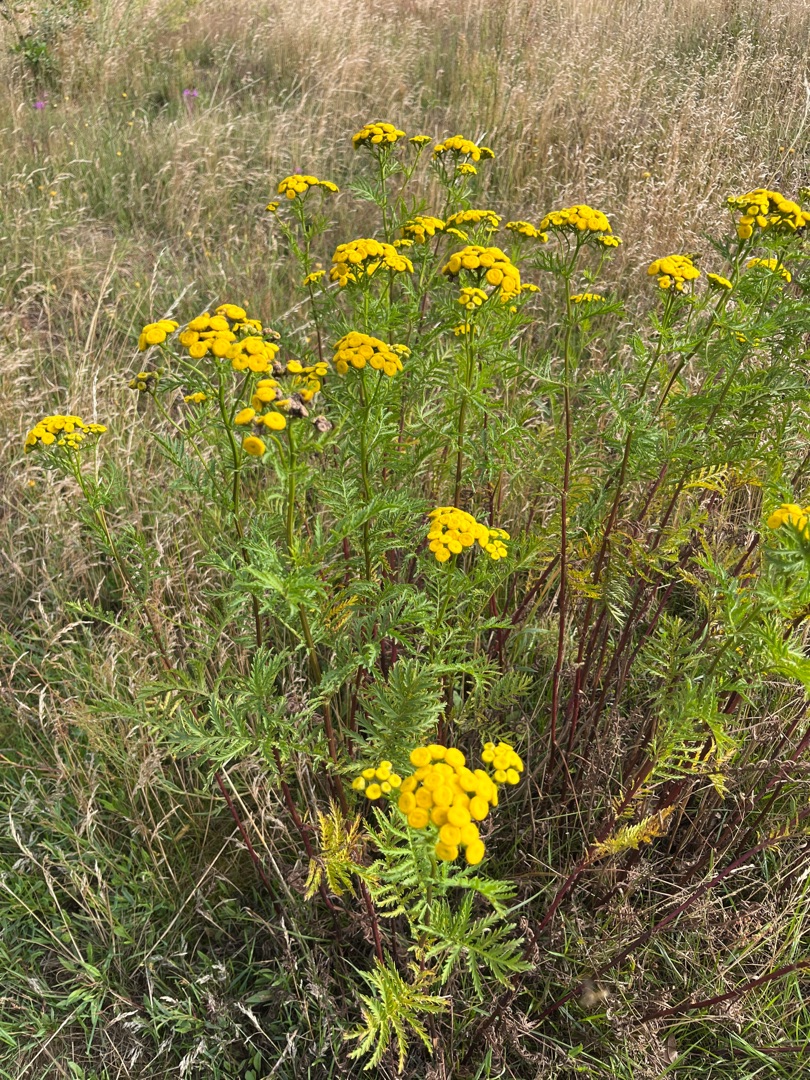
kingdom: Plantae
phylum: Tracheophyta
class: Magnoliopsida
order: Asterales
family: Asteraceae
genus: Tanacetum
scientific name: Tanacetum vulgare
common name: Rejnfan
